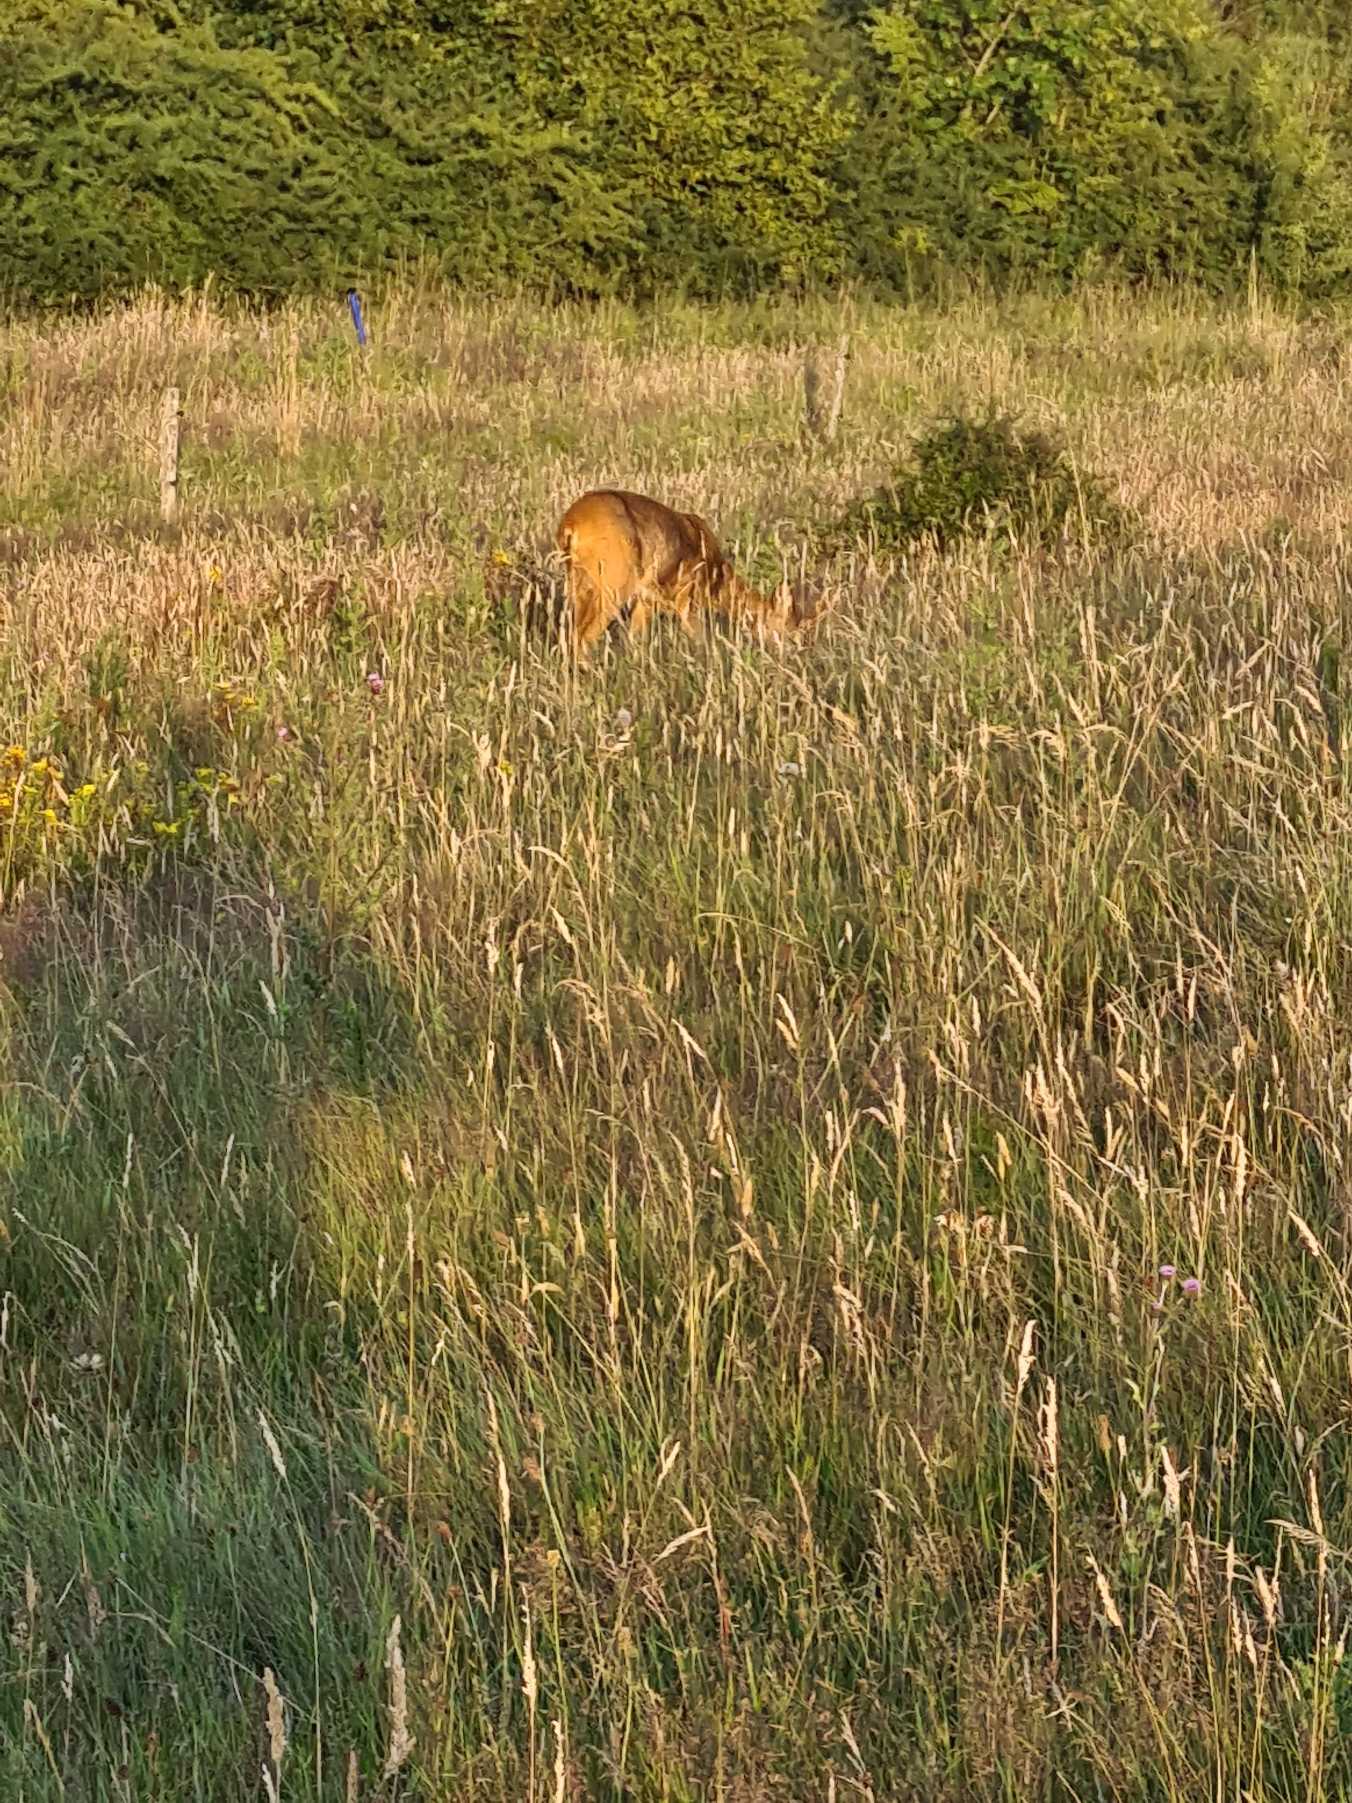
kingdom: Animalia
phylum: Chordata
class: Mammalia
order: Artiodactyla
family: Cervidae
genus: Capreolus
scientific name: Capreolus capreolus
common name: Rådyr
